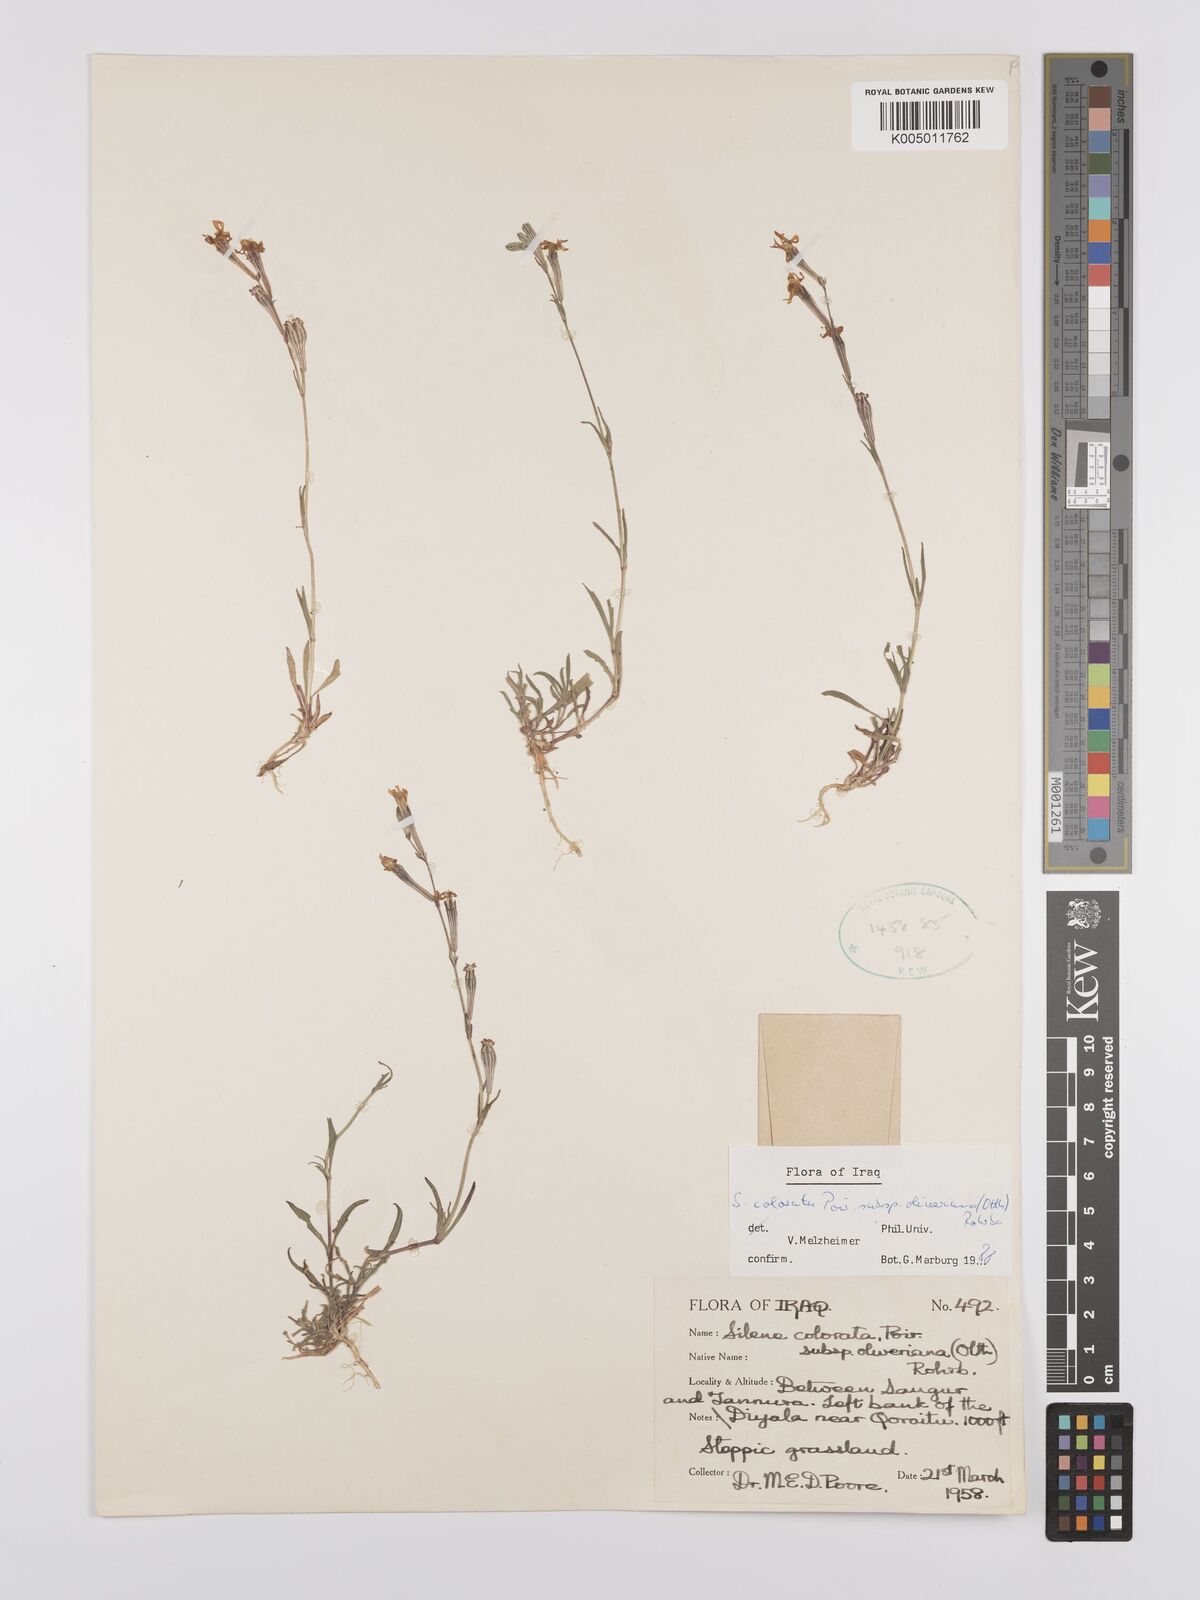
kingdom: Plantae
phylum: Tracheophyta
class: Magnoliopsida
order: Caryophyllales
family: Caryophyllaceae
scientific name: Caryophyllaceae
